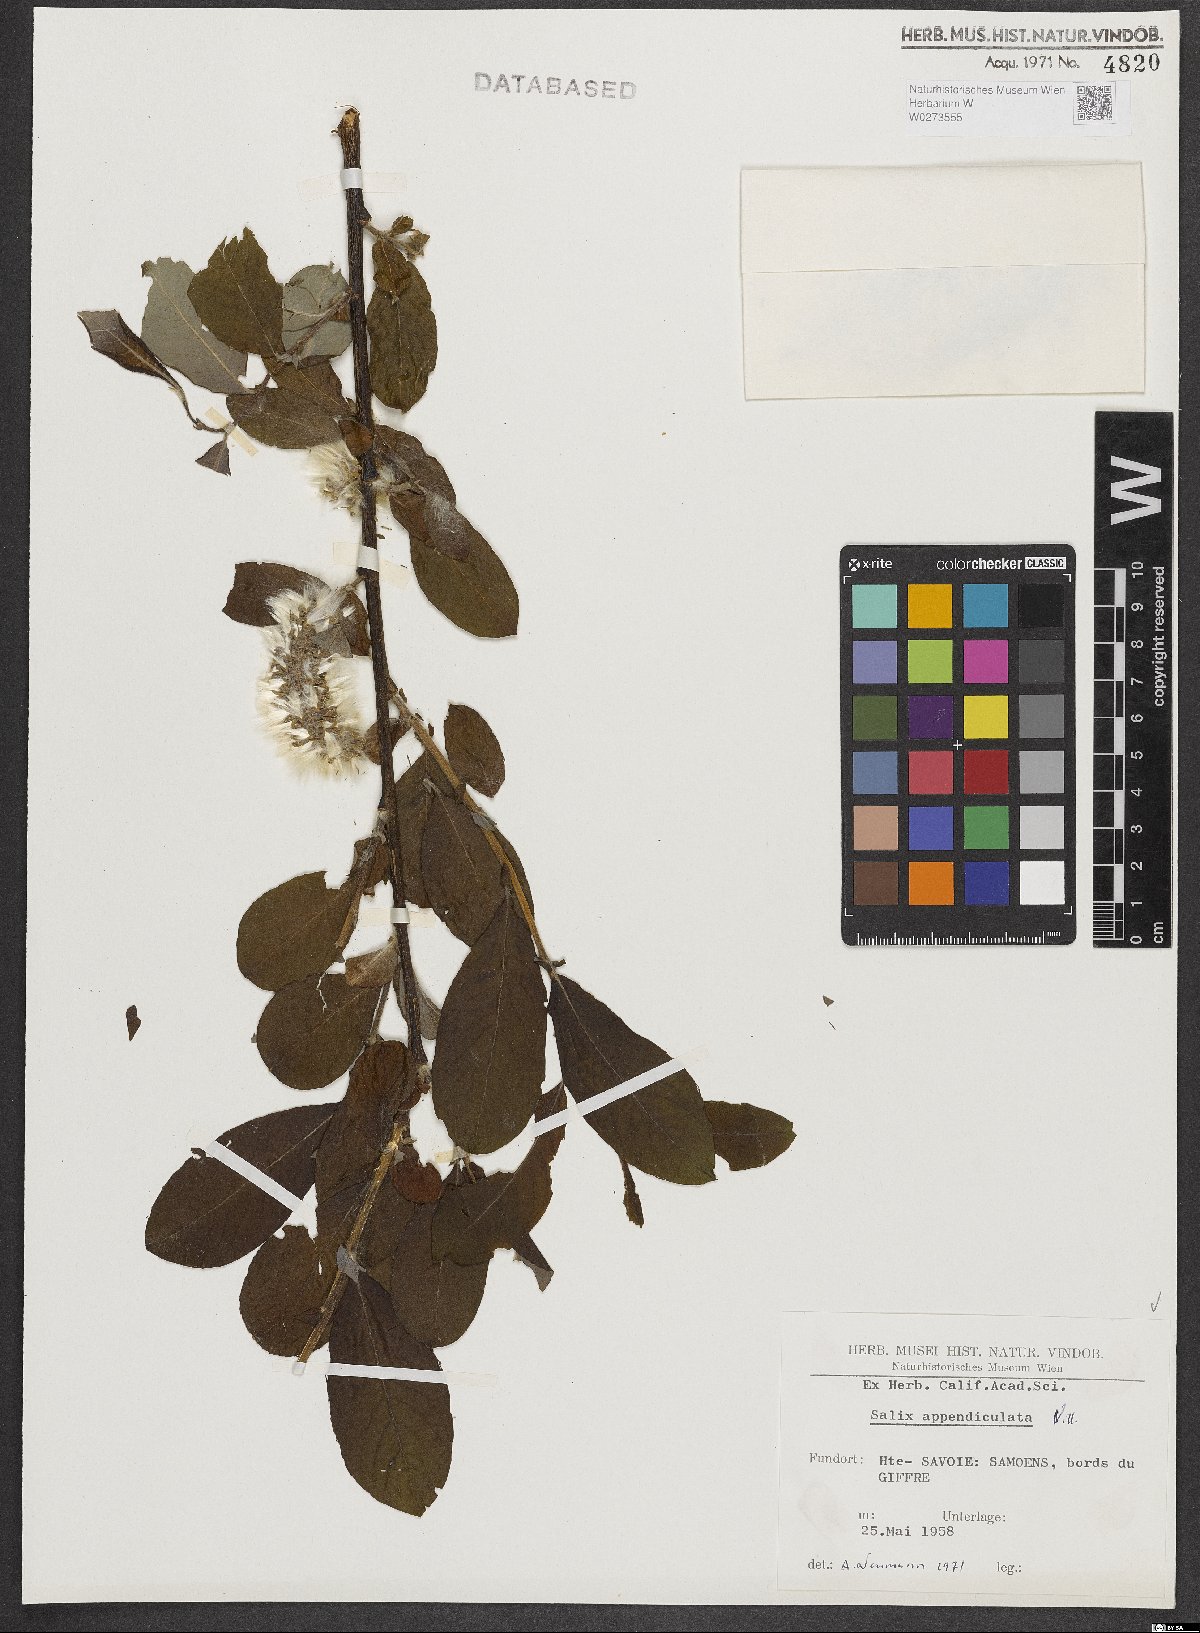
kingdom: Plantae
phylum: Tracheophyta
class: Magnoliopsida
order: Malpighiales
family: Salicaceae
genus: Salix
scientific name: Salix appendiculata
